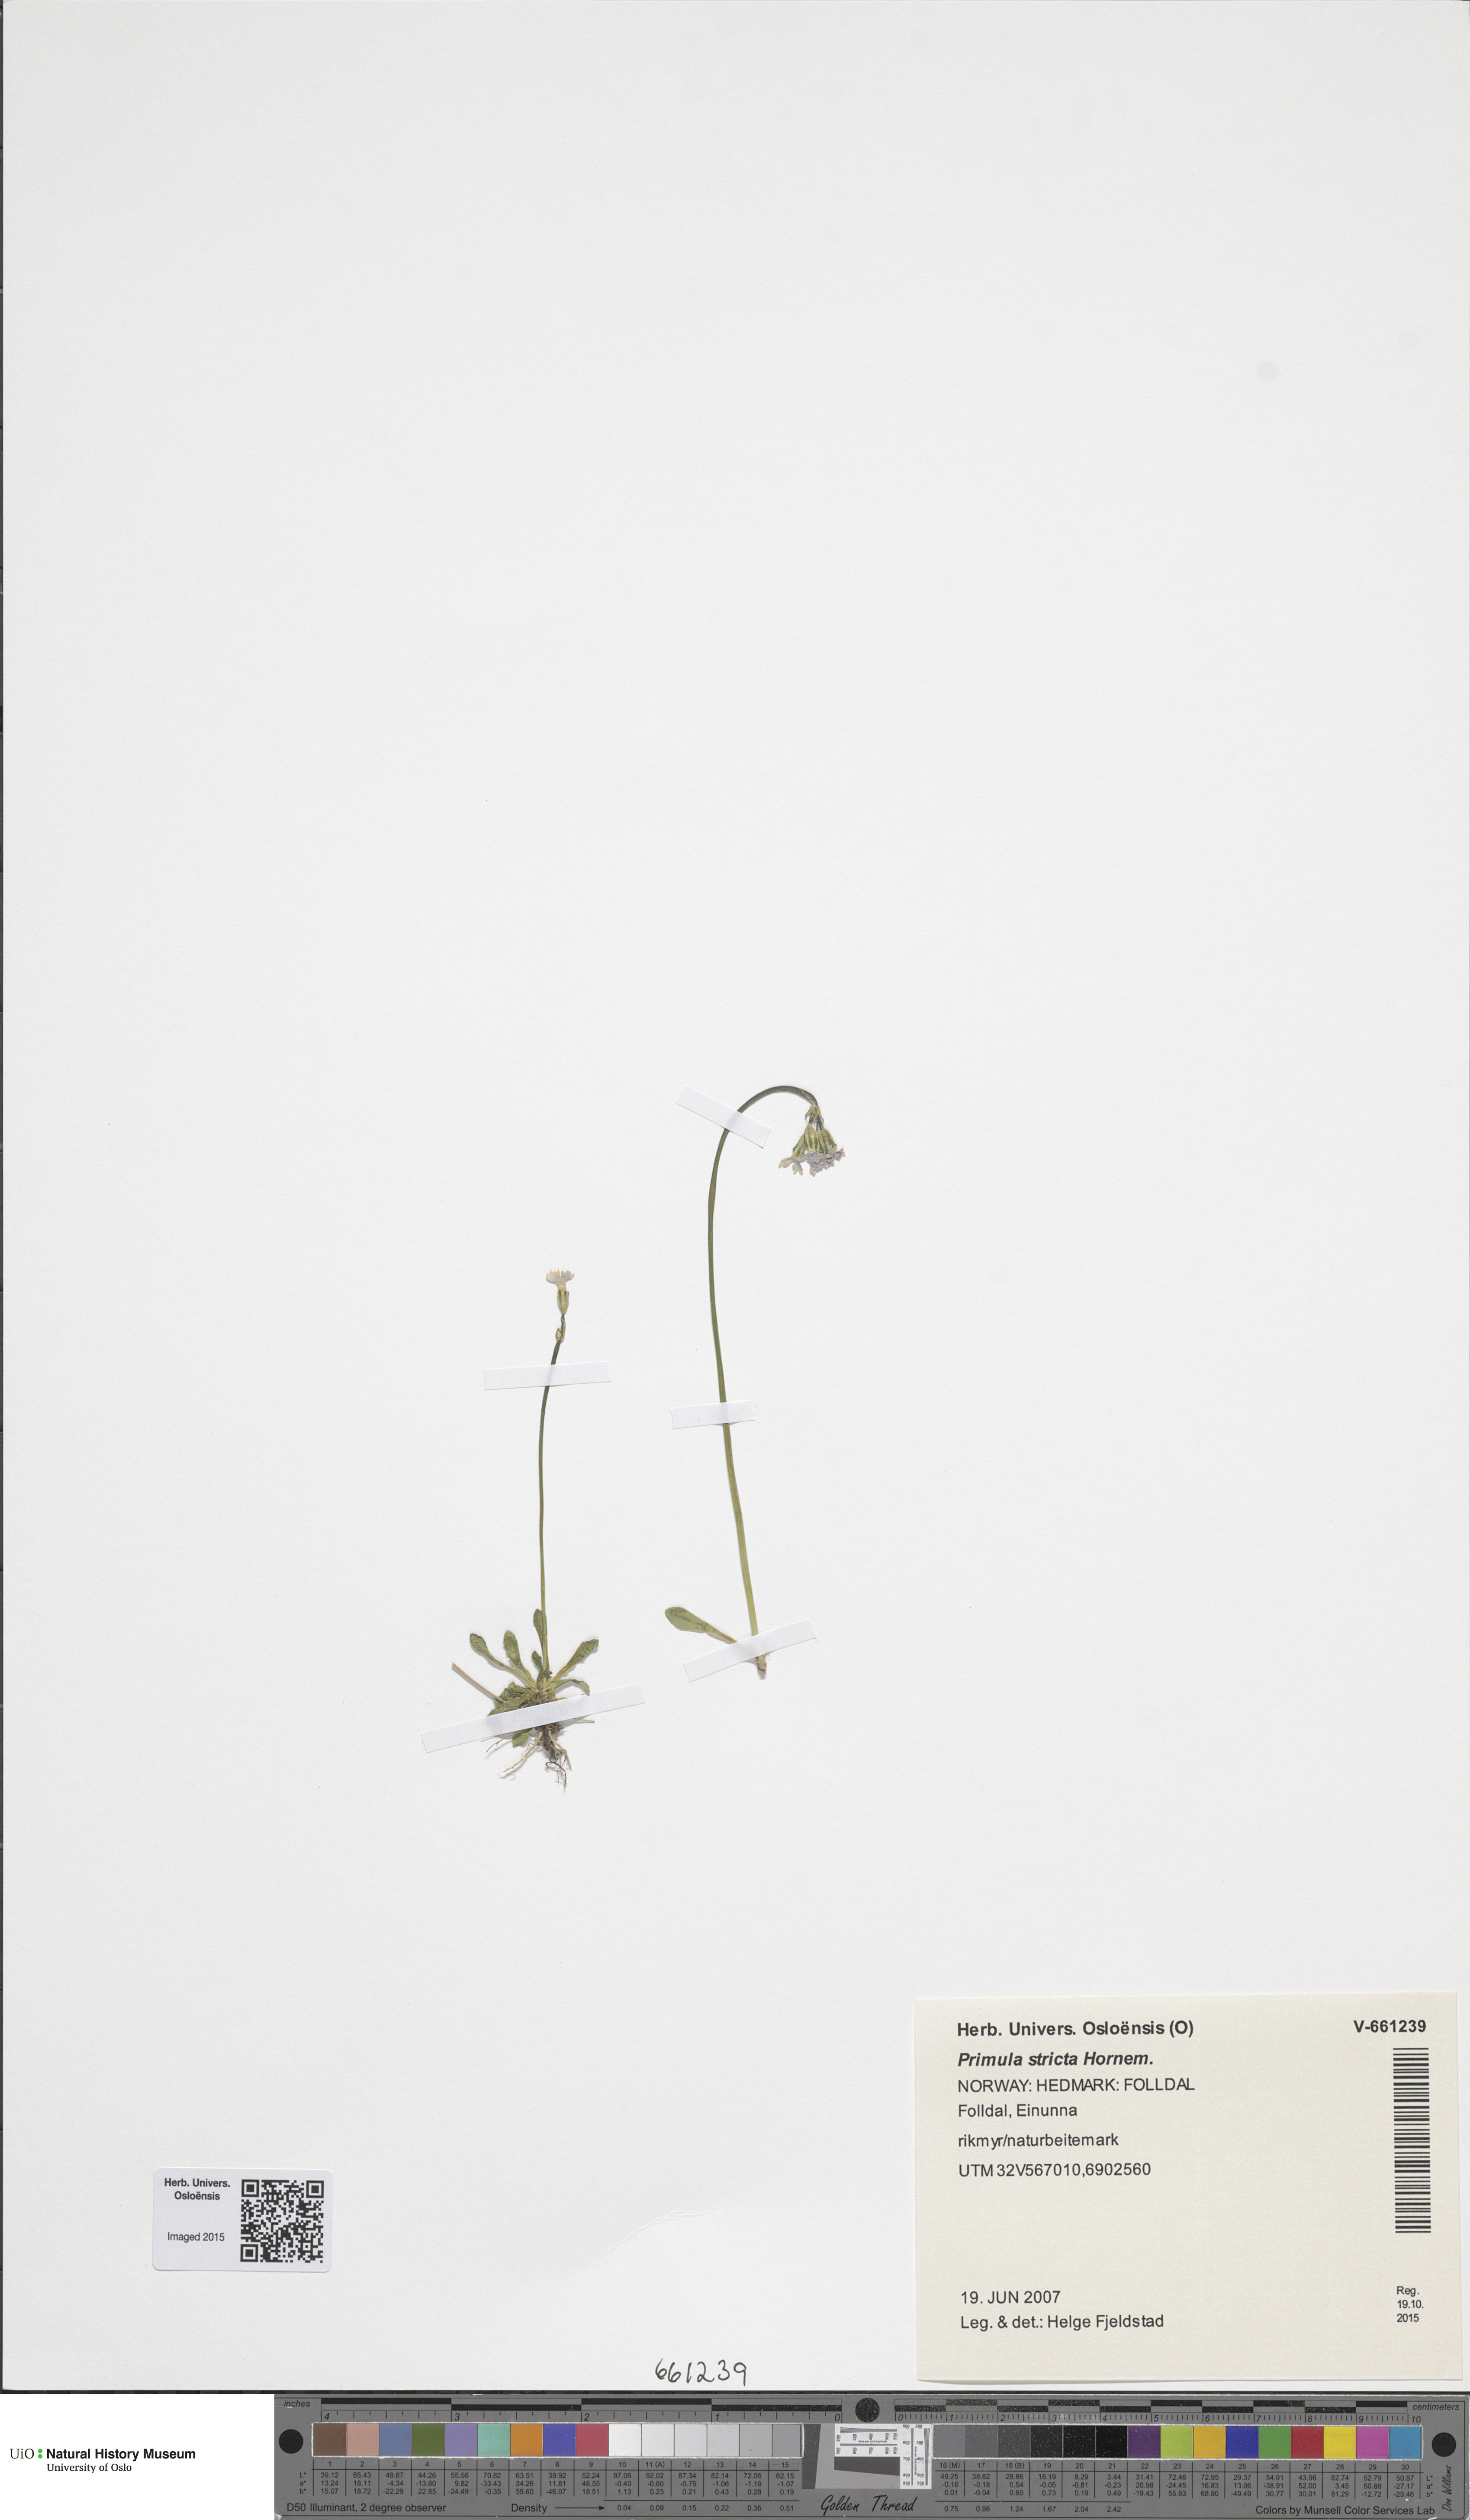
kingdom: Plantae
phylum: Tracheophyta
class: Magnoliopsida
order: Ericales
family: Primulaceae
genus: Primula
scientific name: Primula stricta
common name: Coastal primrose
